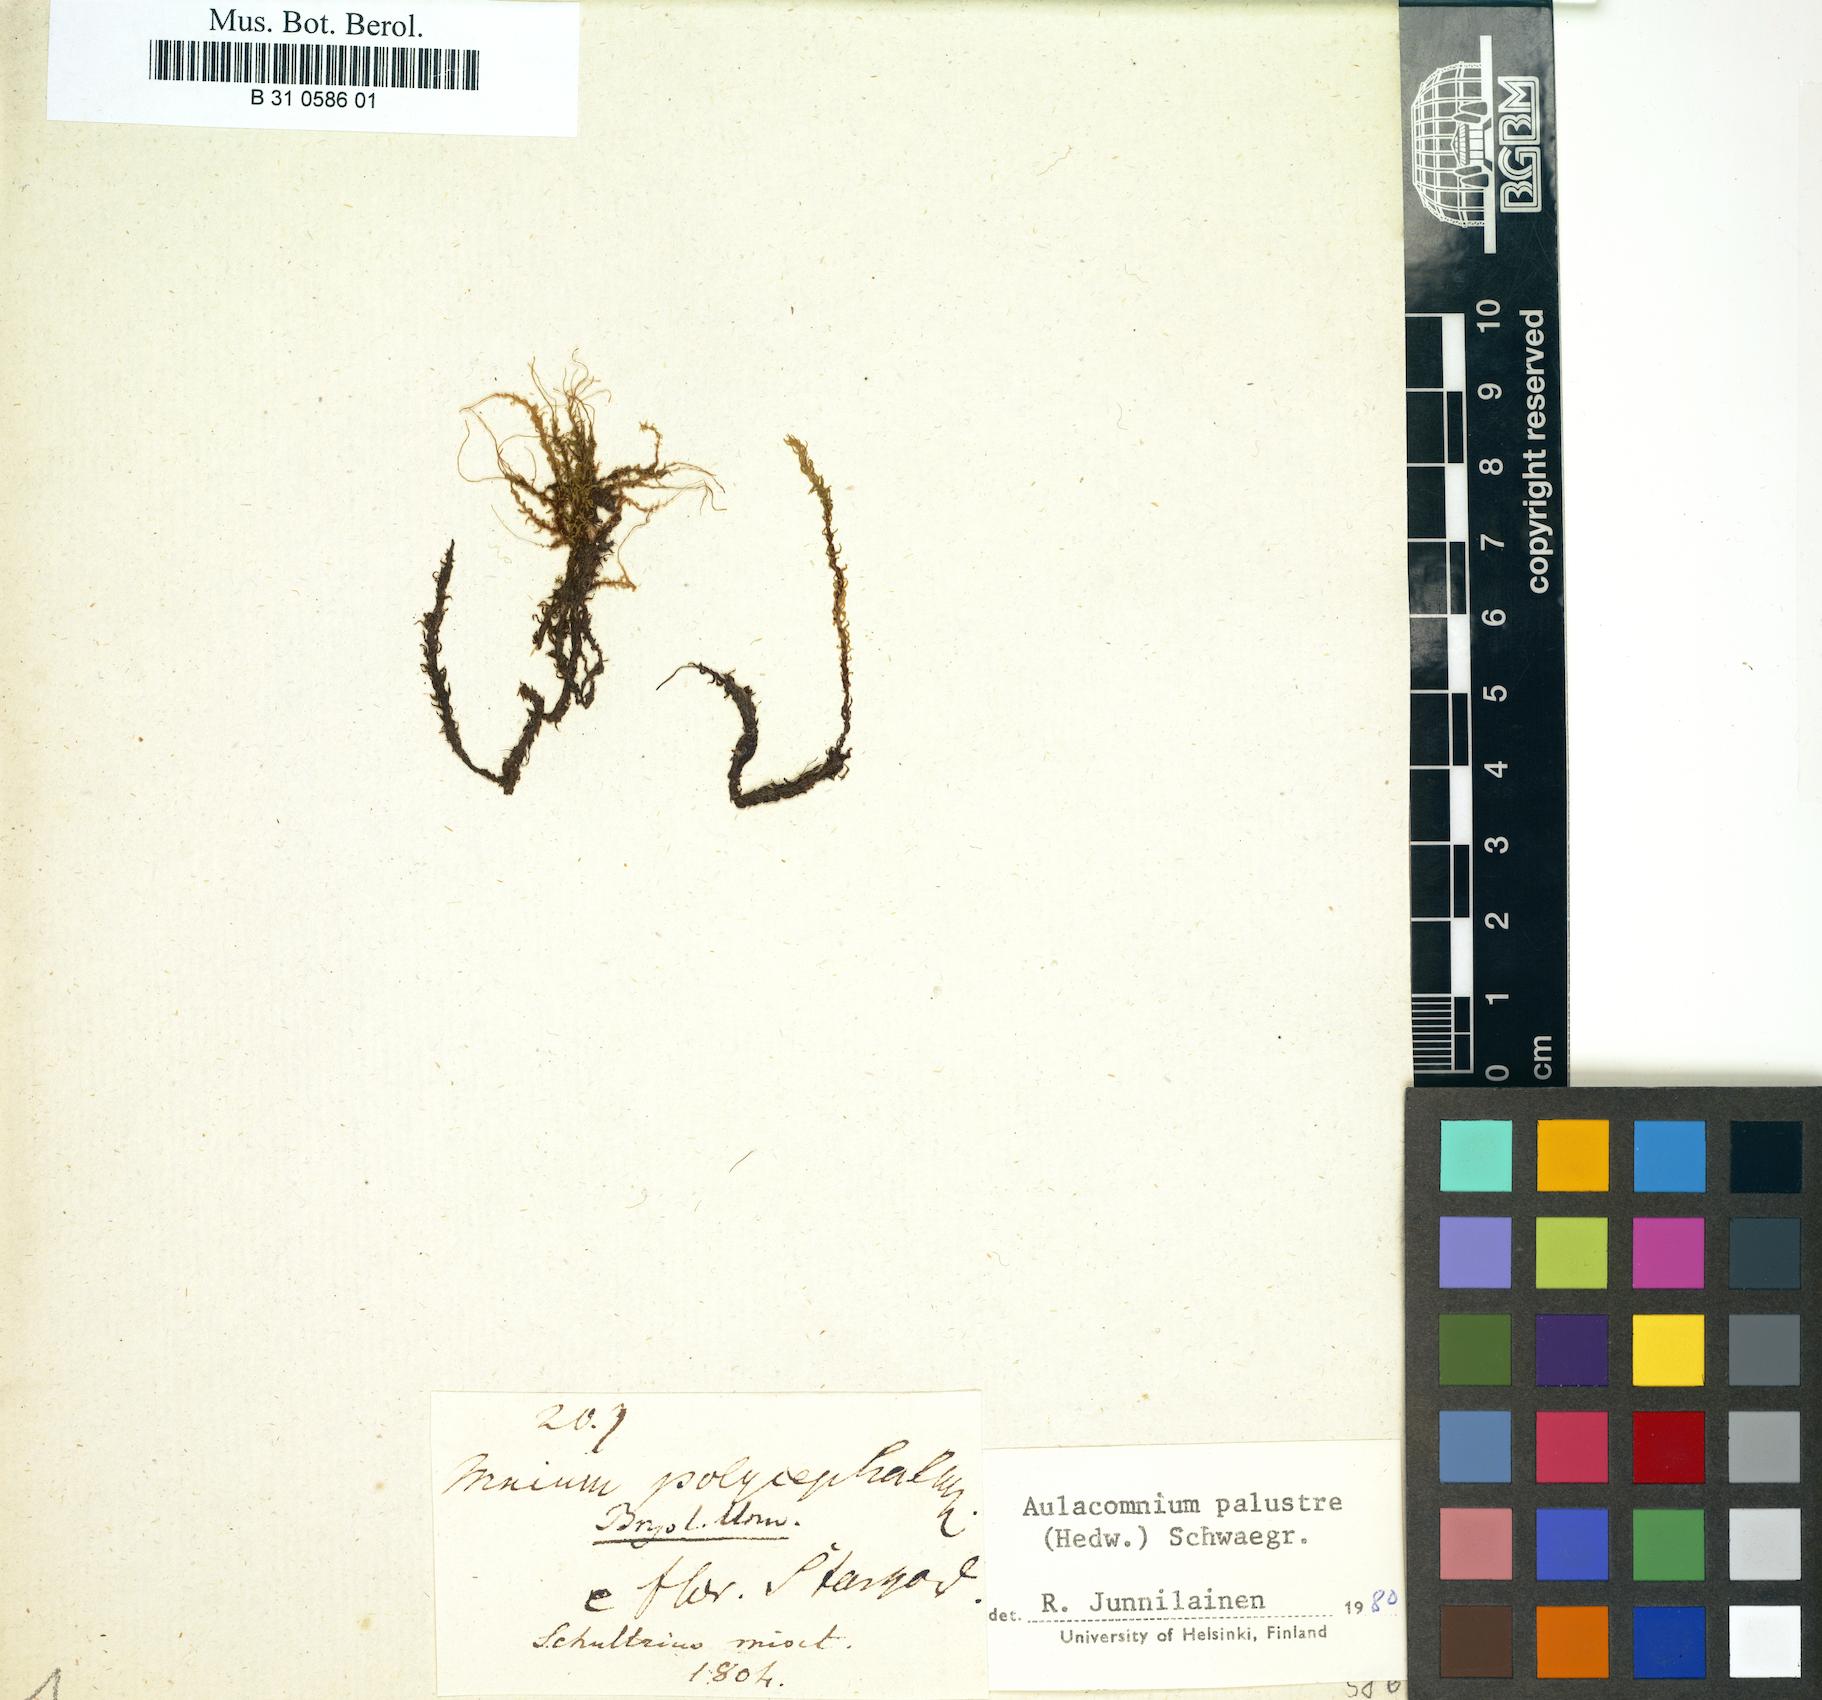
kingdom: Plantae
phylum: Bryophyta
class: Bryopsida
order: Aulacomniales
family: Aulacomniaceae
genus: Aulacomnium
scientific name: Aulacomnium palustre
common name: Bog groove-moss
